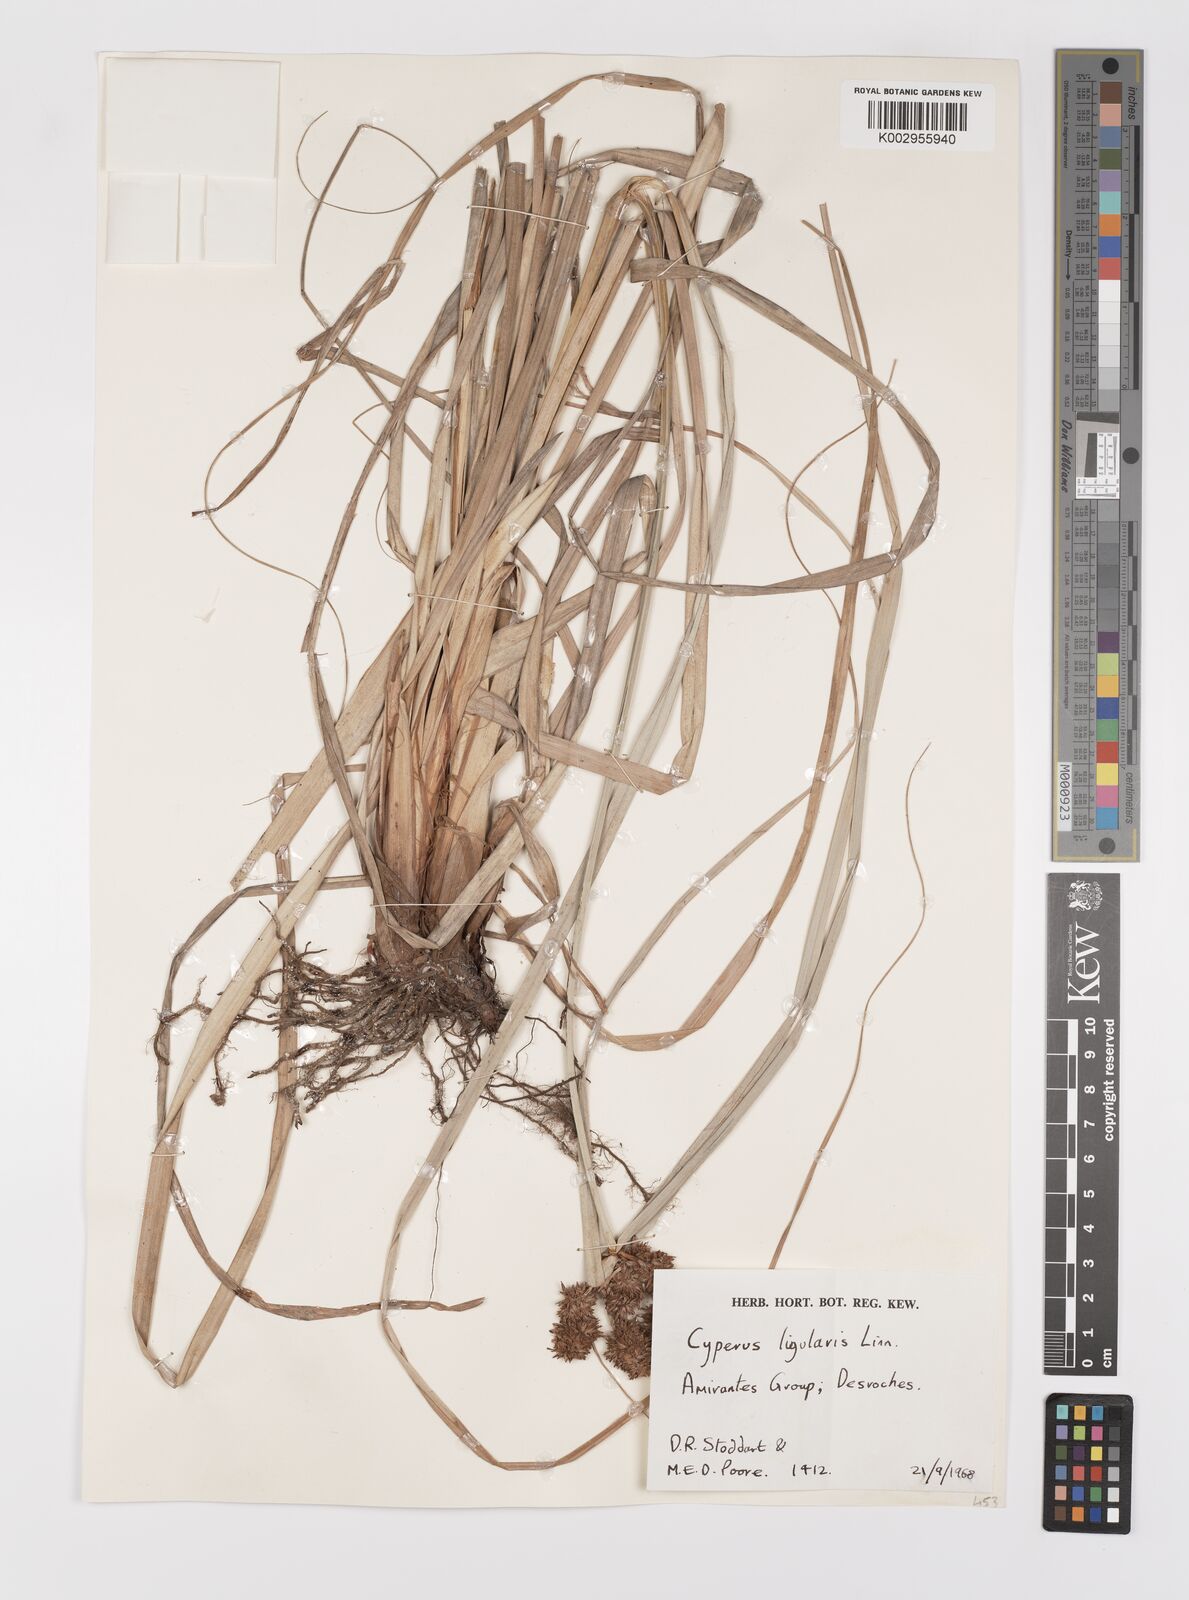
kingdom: Plantae
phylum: Tracheophyta
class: Liliopsida
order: Poales
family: Cyperaceae
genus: Cyperus
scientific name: Cyperus ligularis
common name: Swamp flat sedge
